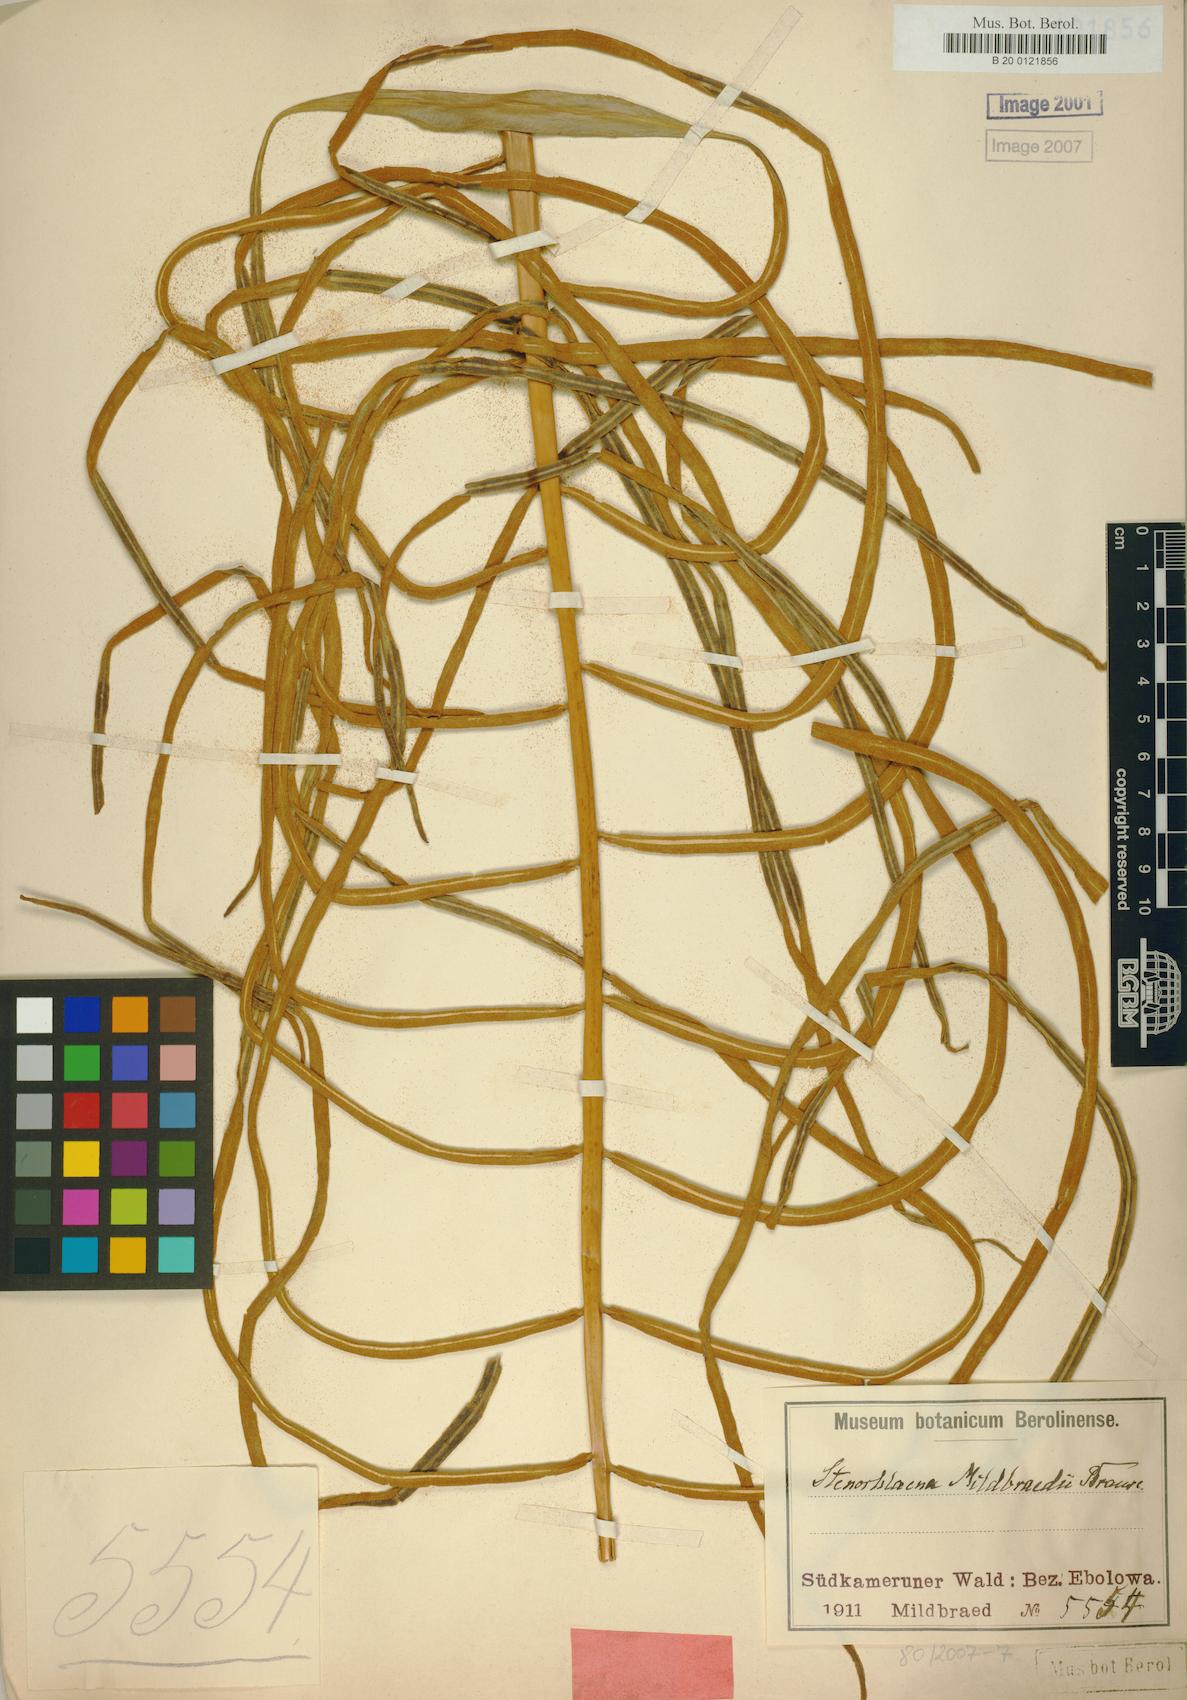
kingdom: Plantae
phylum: Tracheophyta
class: Polypodiopsida
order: Polypodiales
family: Blechnaceae
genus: Stenochlaena
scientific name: Stenochlaena tenuifolia
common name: Giant vine fern
